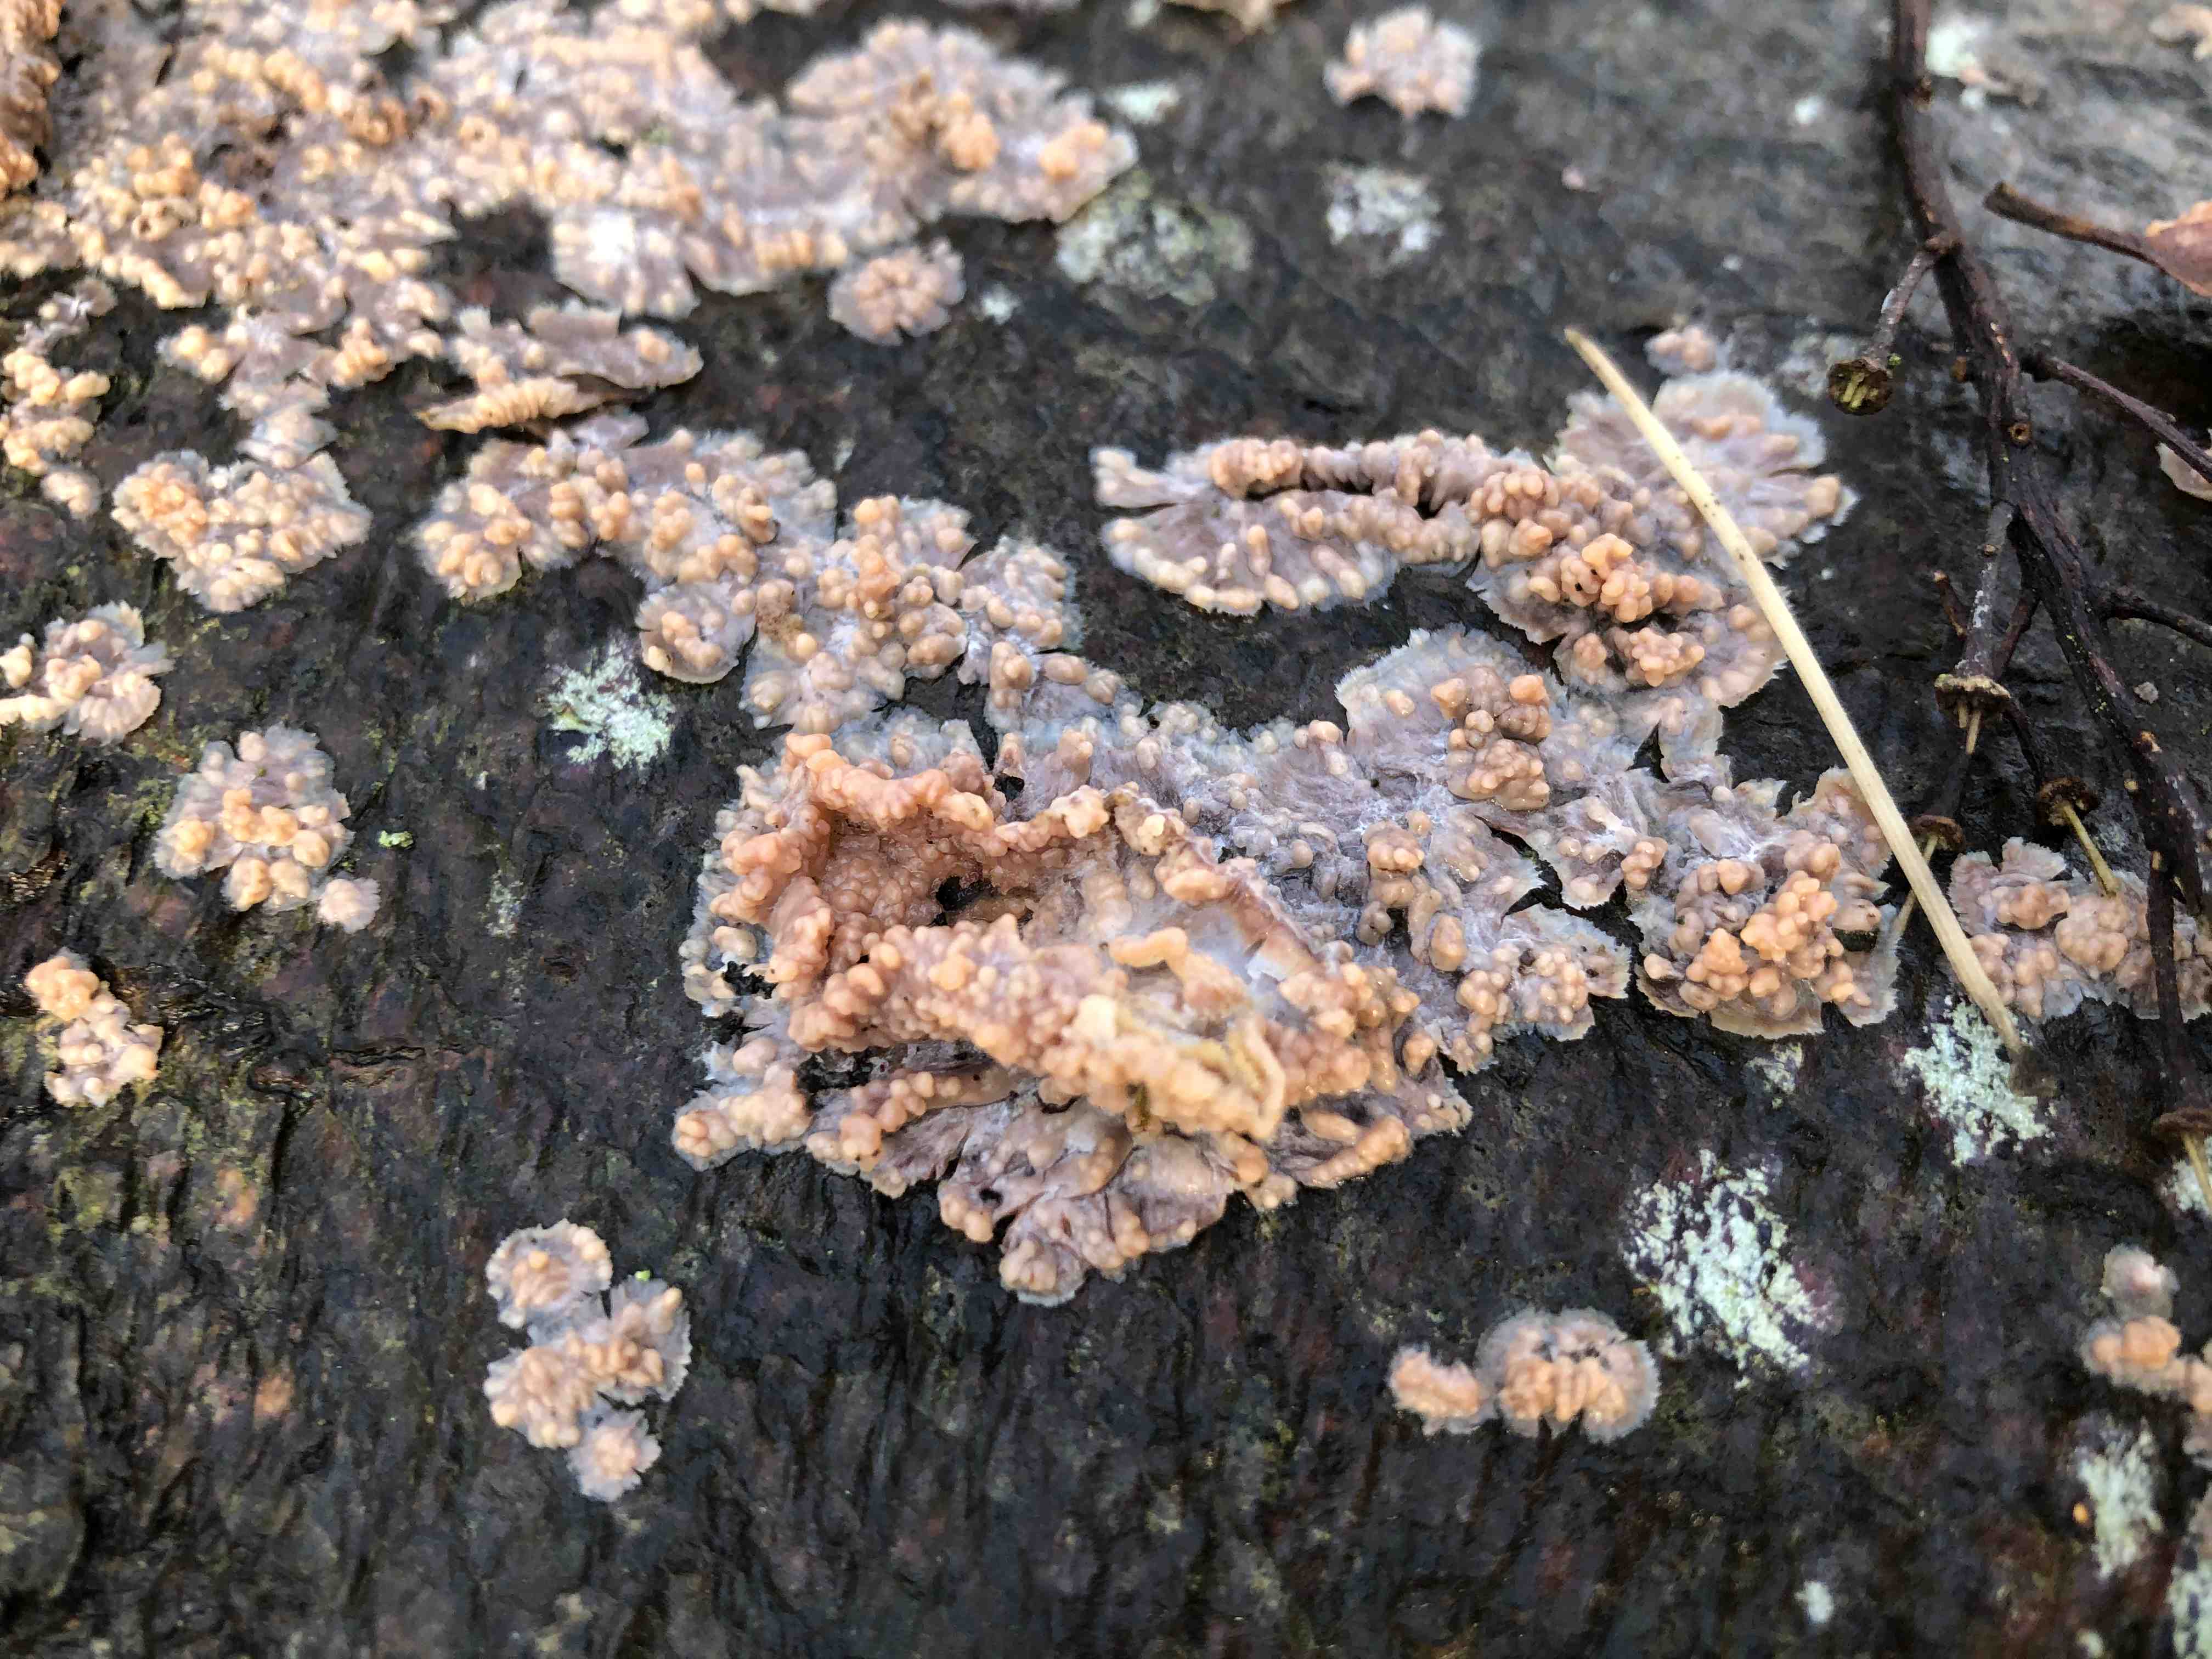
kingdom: Fungi
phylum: Basidiomycota
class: Agaricomycetes
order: Polyporales
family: Meruliaceae
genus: Phlebia
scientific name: Phlebia radiata
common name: stråle-åresvamp
